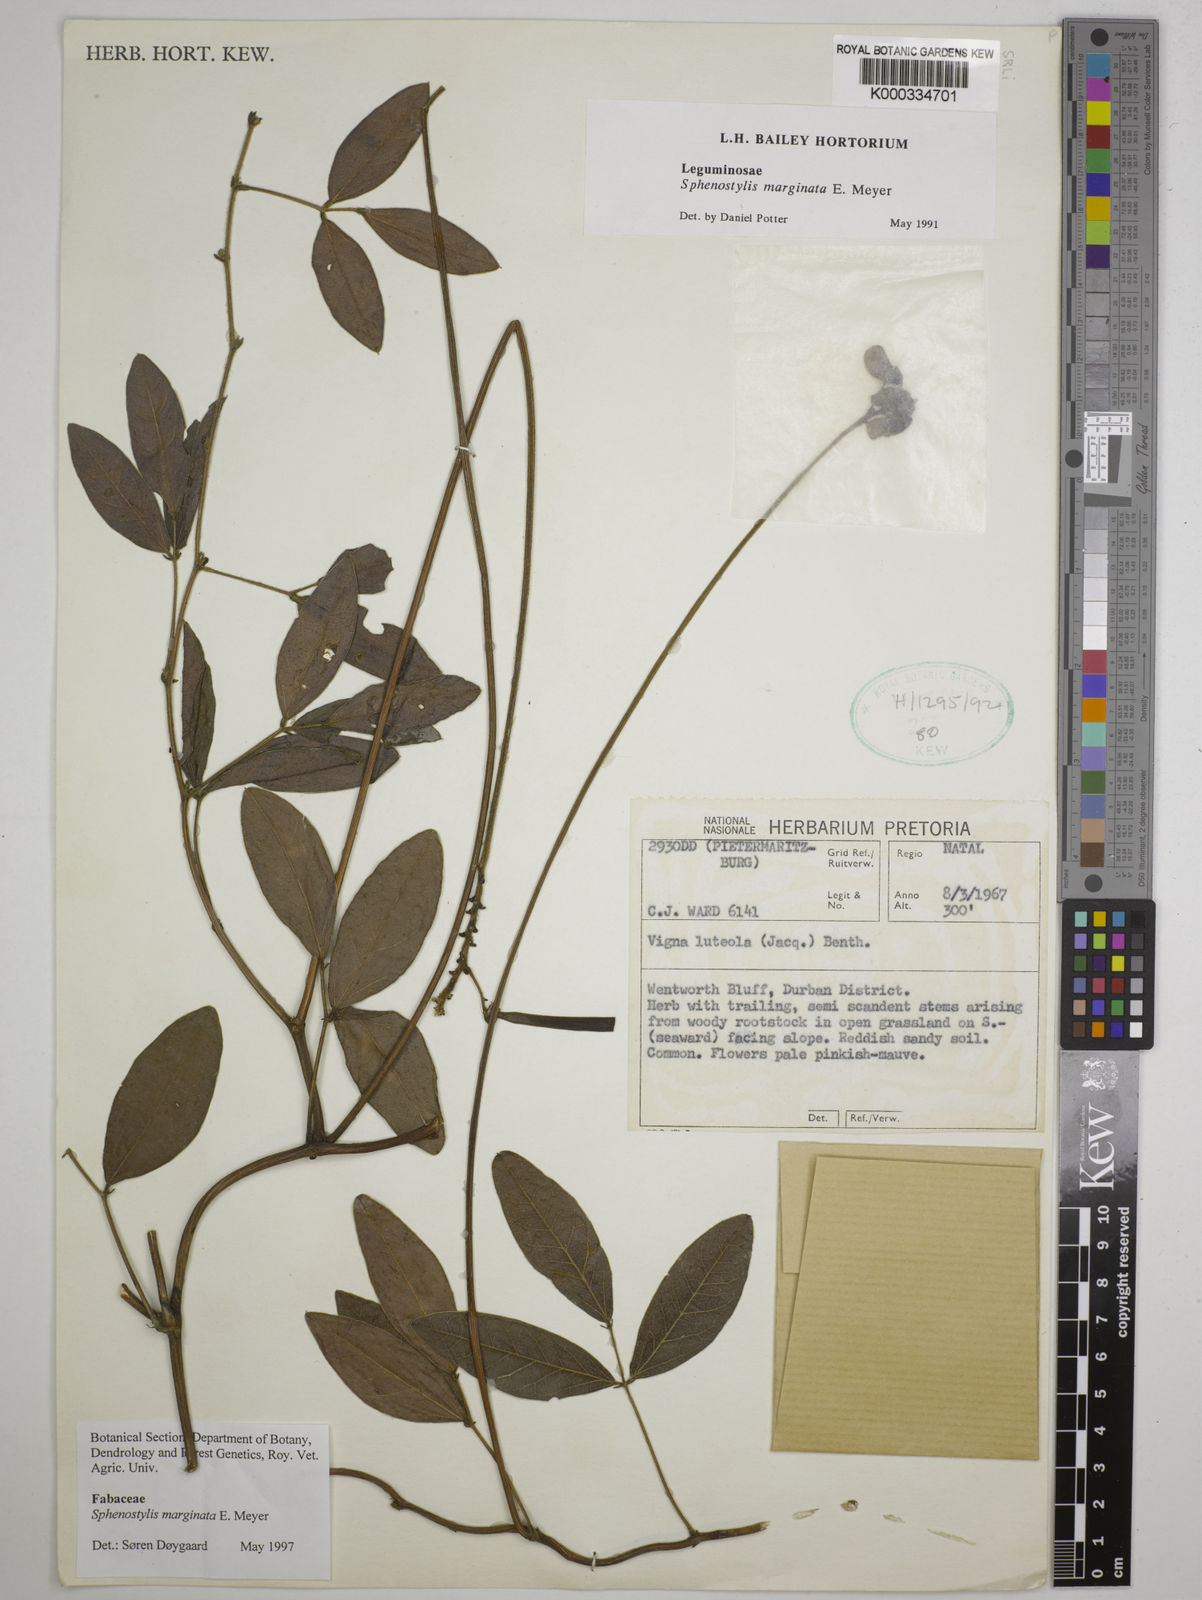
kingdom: Plantae
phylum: Tracheophyta
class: Magnoliopsida
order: Fabales
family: Fabaceae
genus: Sphenostylis
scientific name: Sphenostylis marginata
